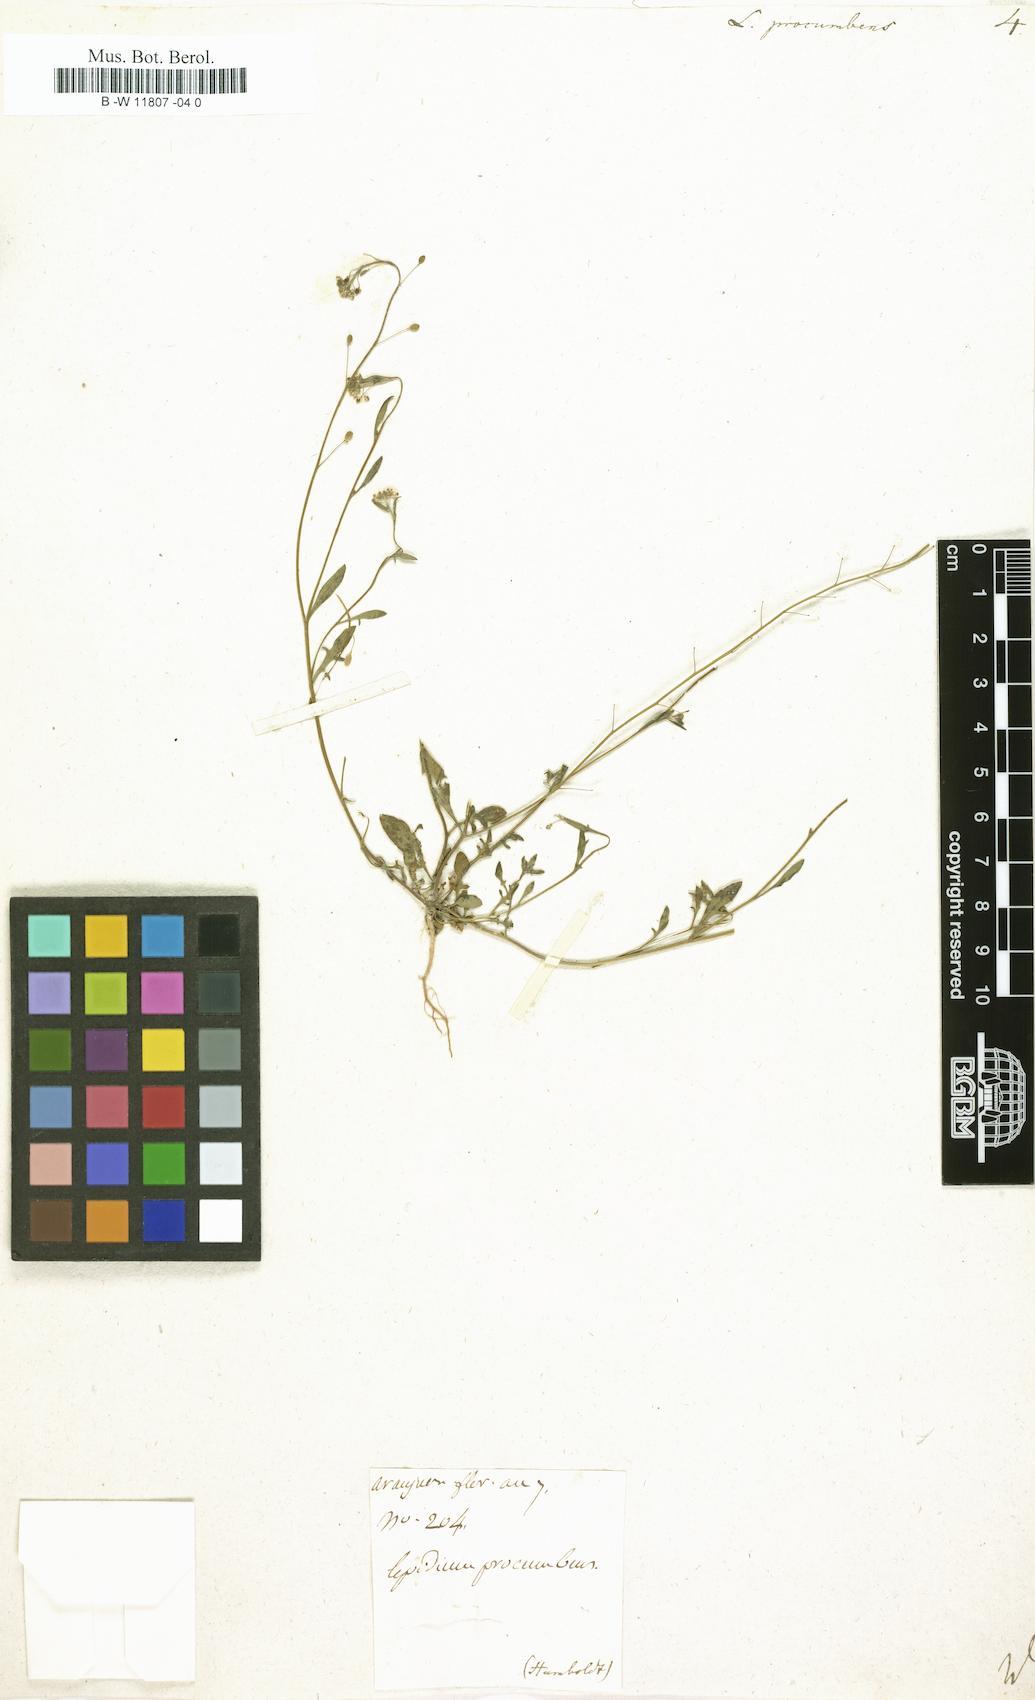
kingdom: Plantae
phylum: Tracheophyta
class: Magnoliopsida
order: Brassicales
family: Brassicaceae
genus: Hornungia
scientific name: Hornungia procumbens
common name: Oval purse
